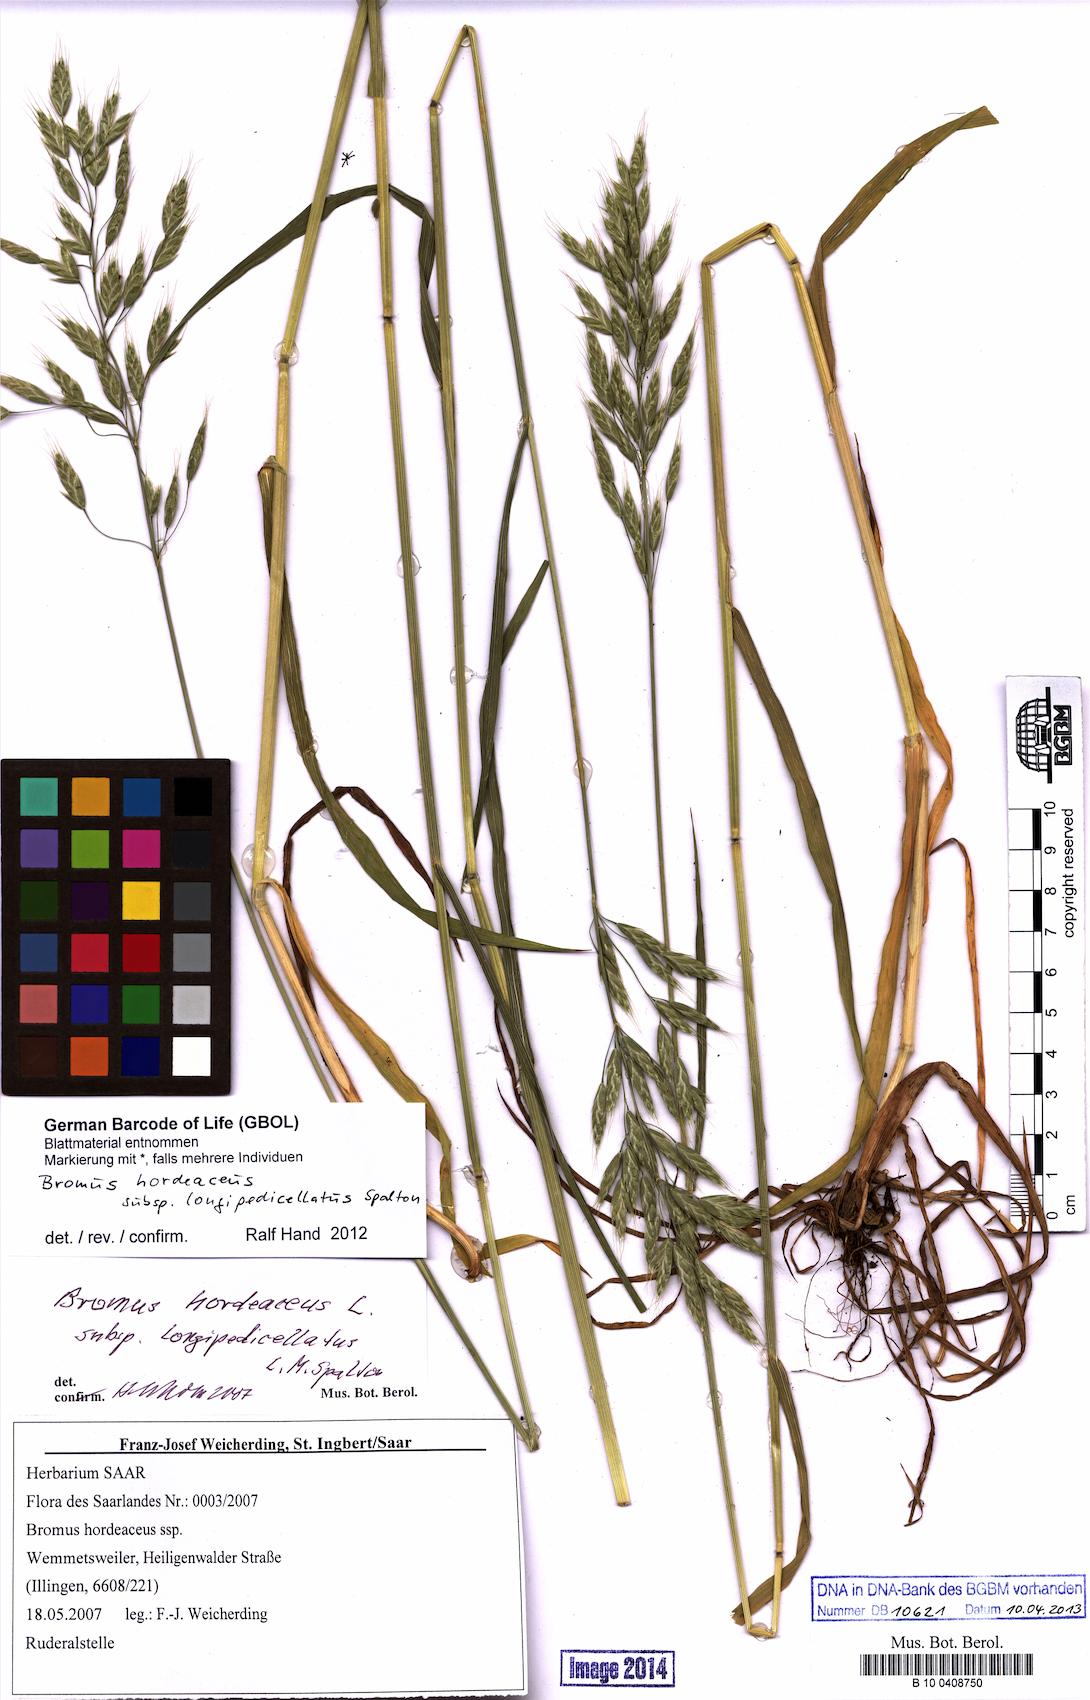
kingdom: Plantae
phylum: Tracheophyta
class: Liliopsida
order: Poales
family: Poaceae
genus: Bromus
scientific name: Bromus hordeaceus
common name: Soft brome
